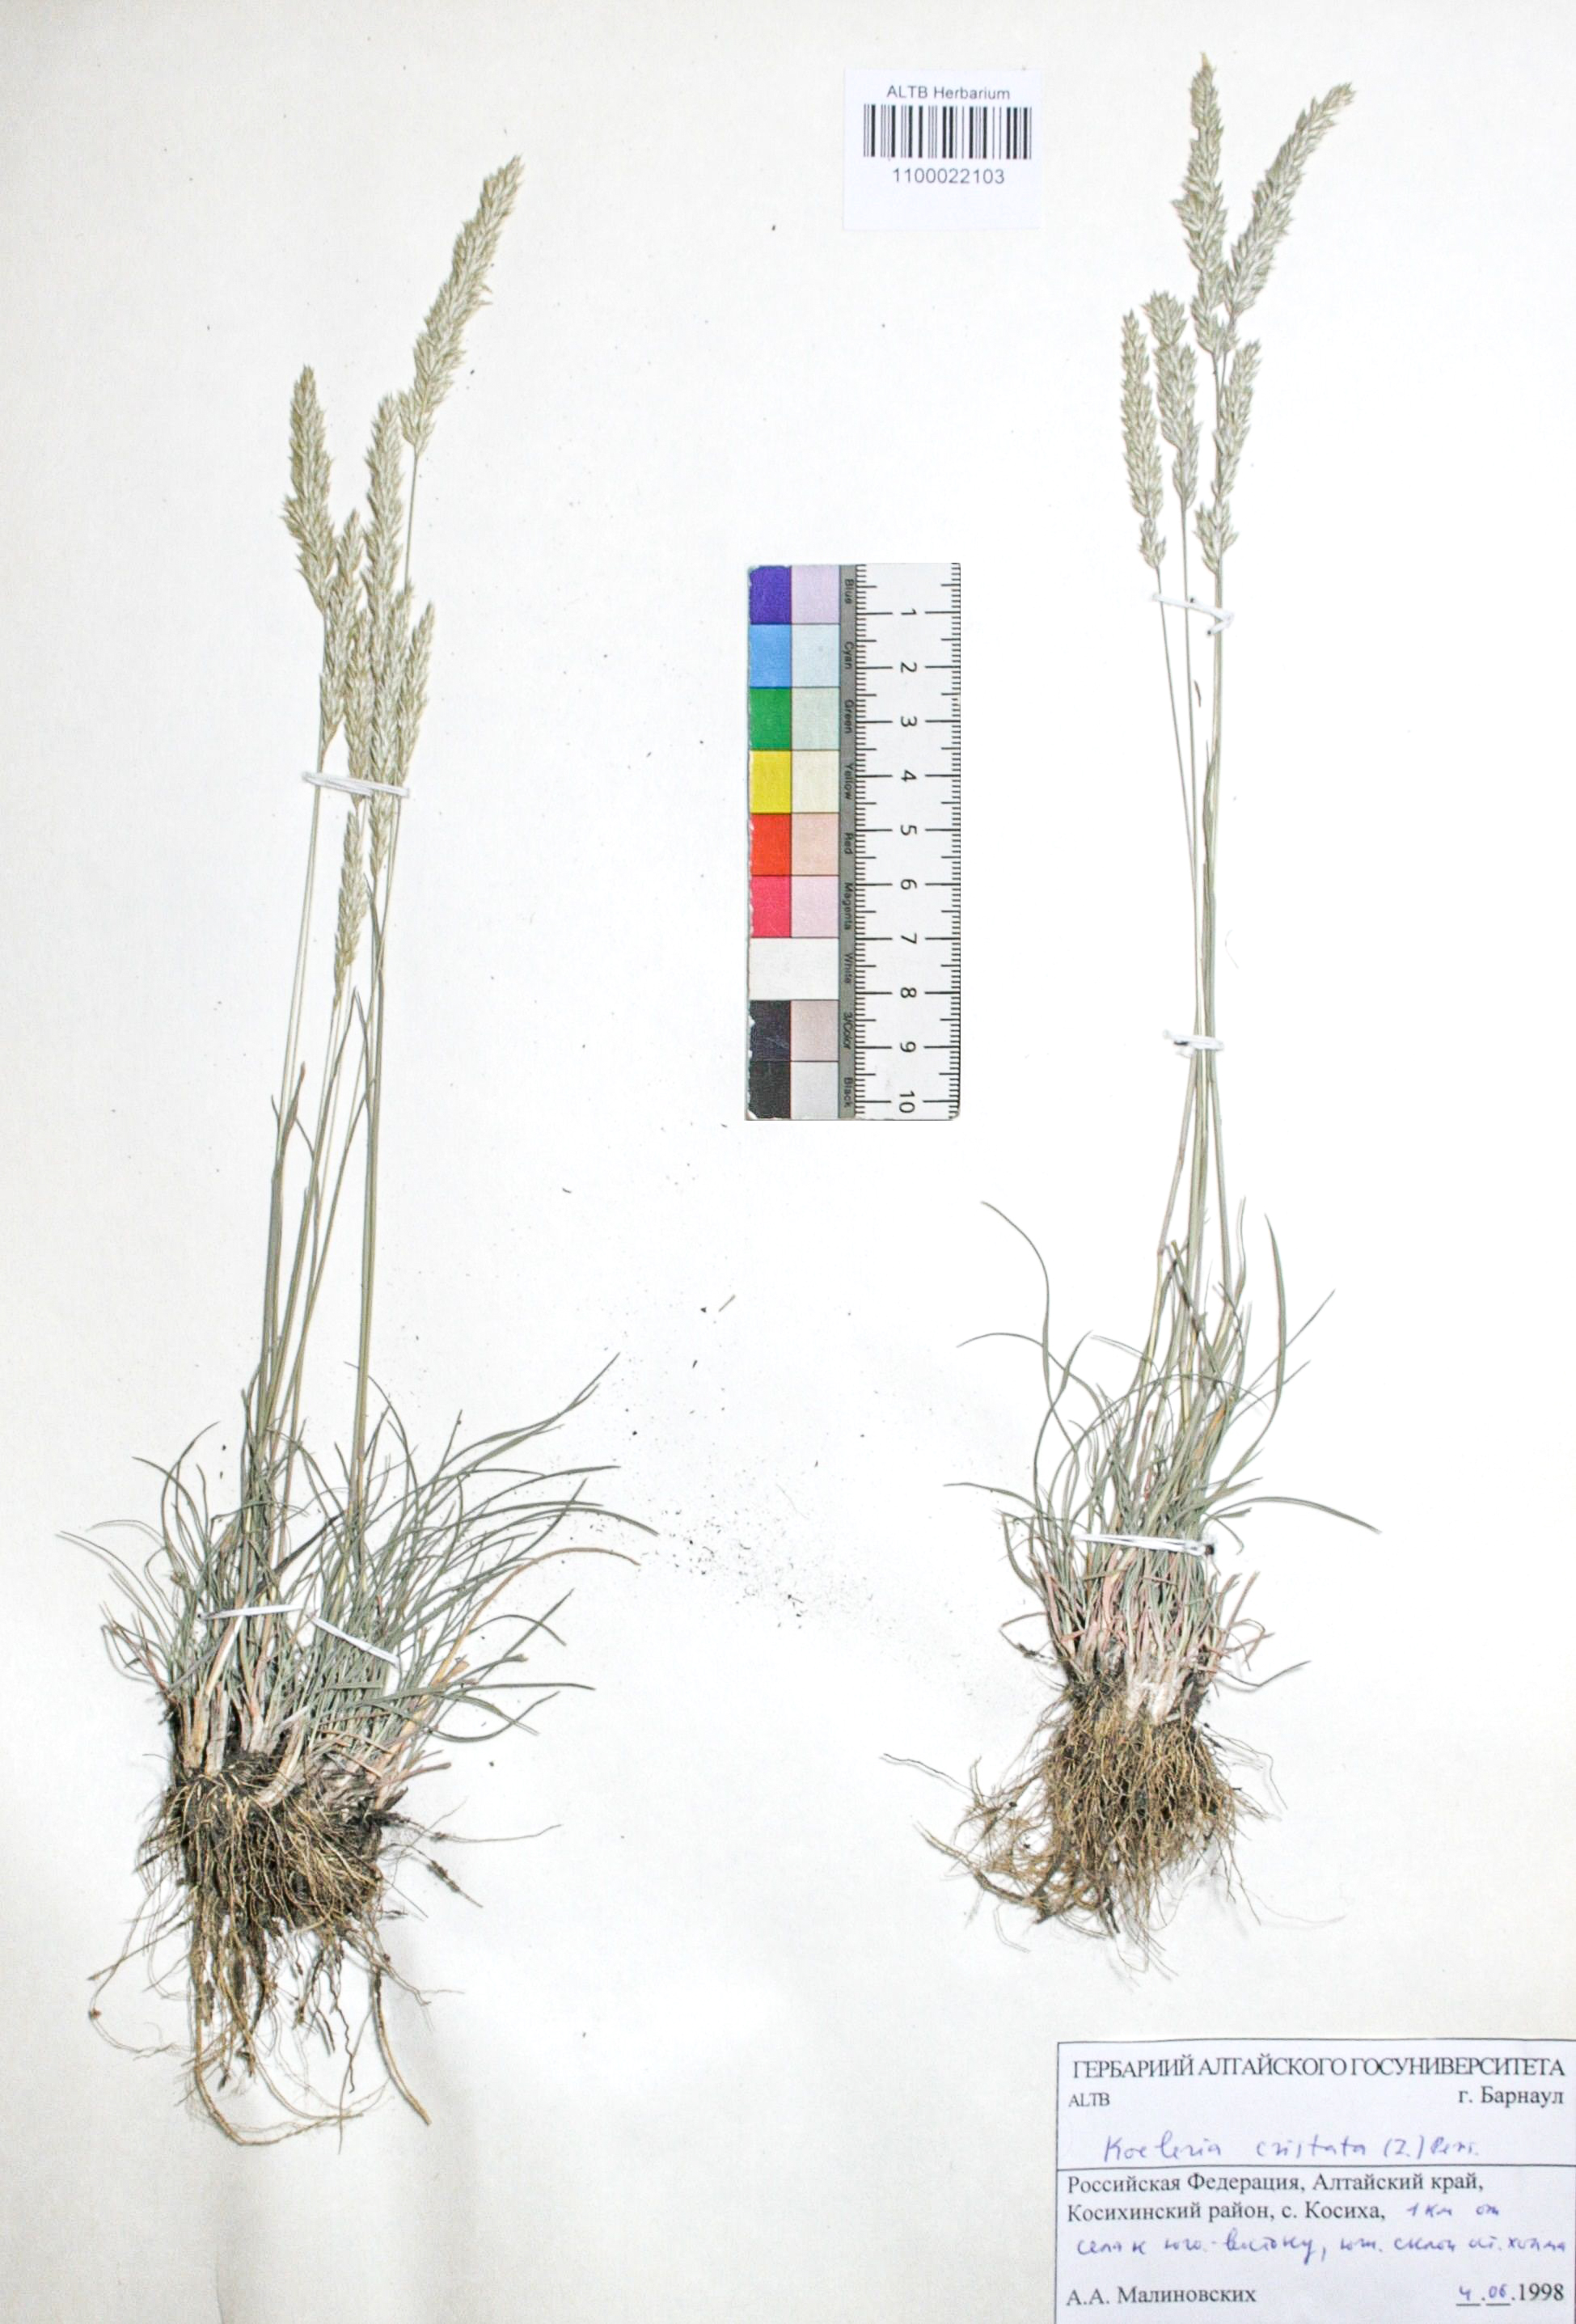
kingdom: Plantae
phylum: Tracheophyta
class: Liliopsida
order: Poales
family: Poaceae
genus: Koeleria
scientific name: Koeleria pyramidata
